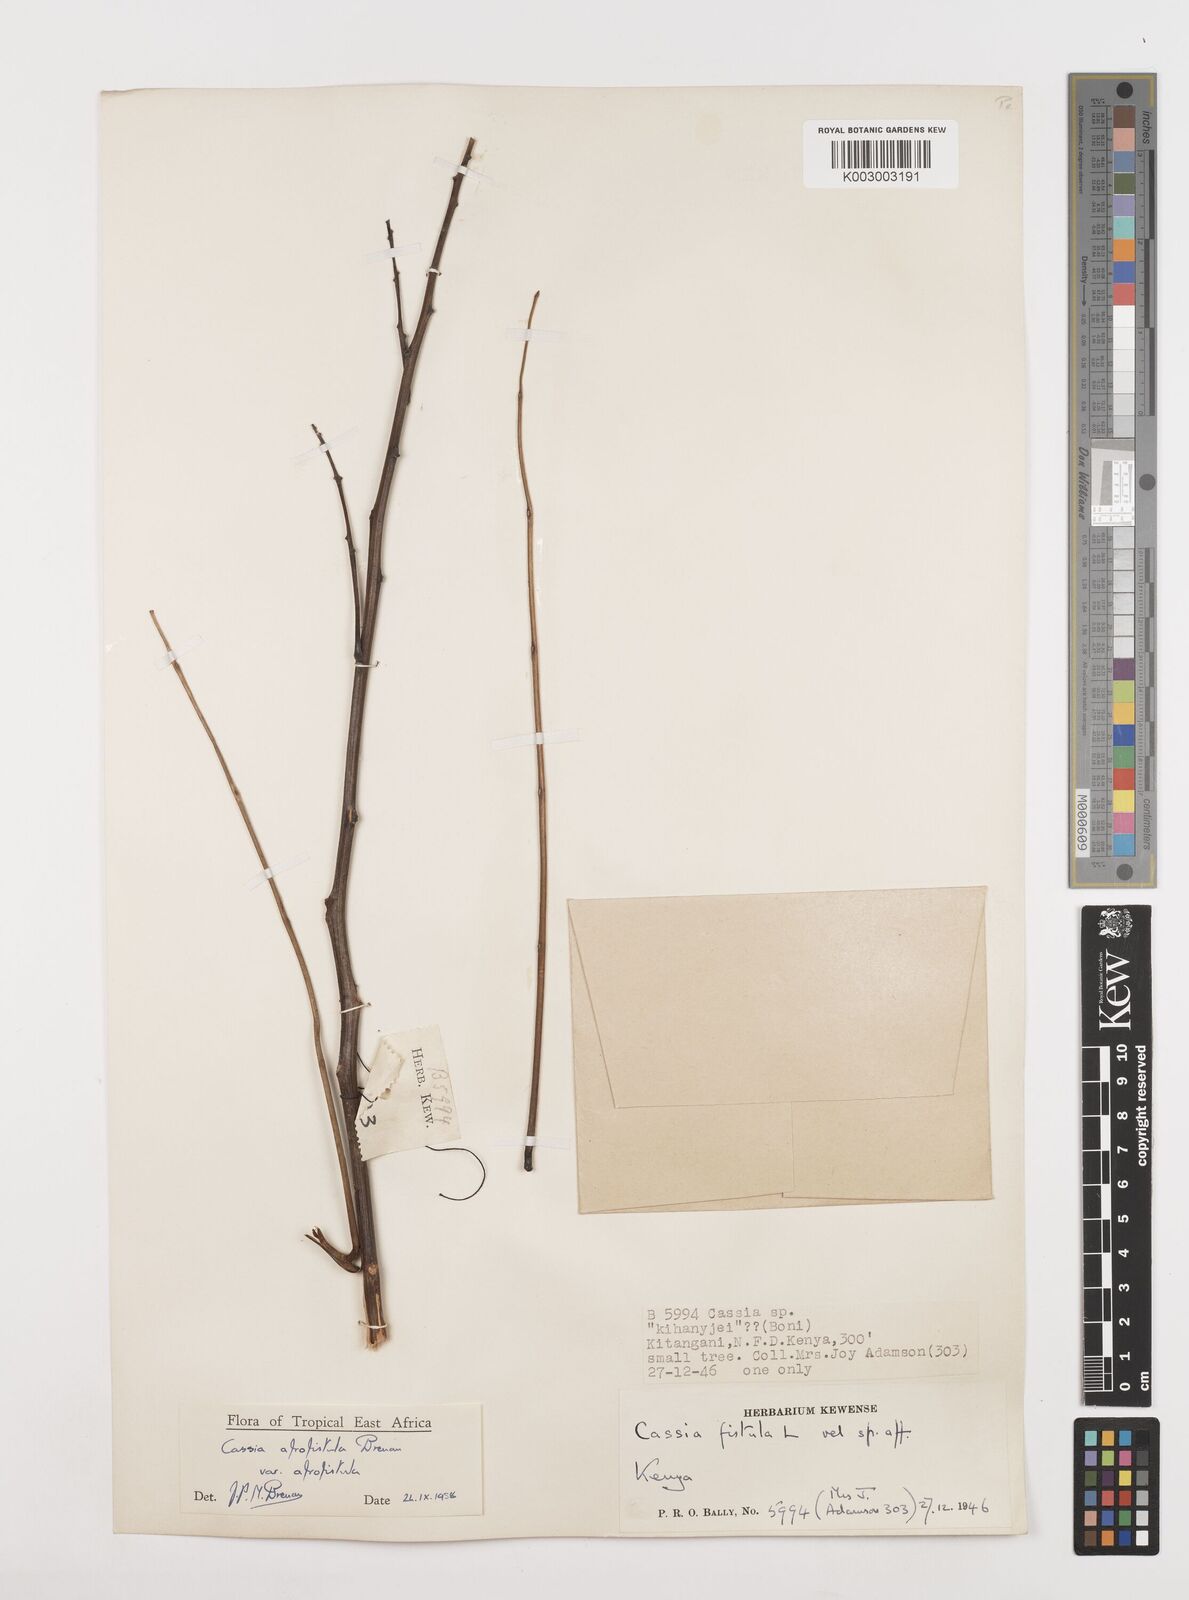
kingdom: Plantae
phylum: Tracheophyta
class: Magnoliopsida
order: Fabales
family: Fabaceae
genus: Cassia
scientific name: Cassia afrofistula
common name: Kenyan shower
